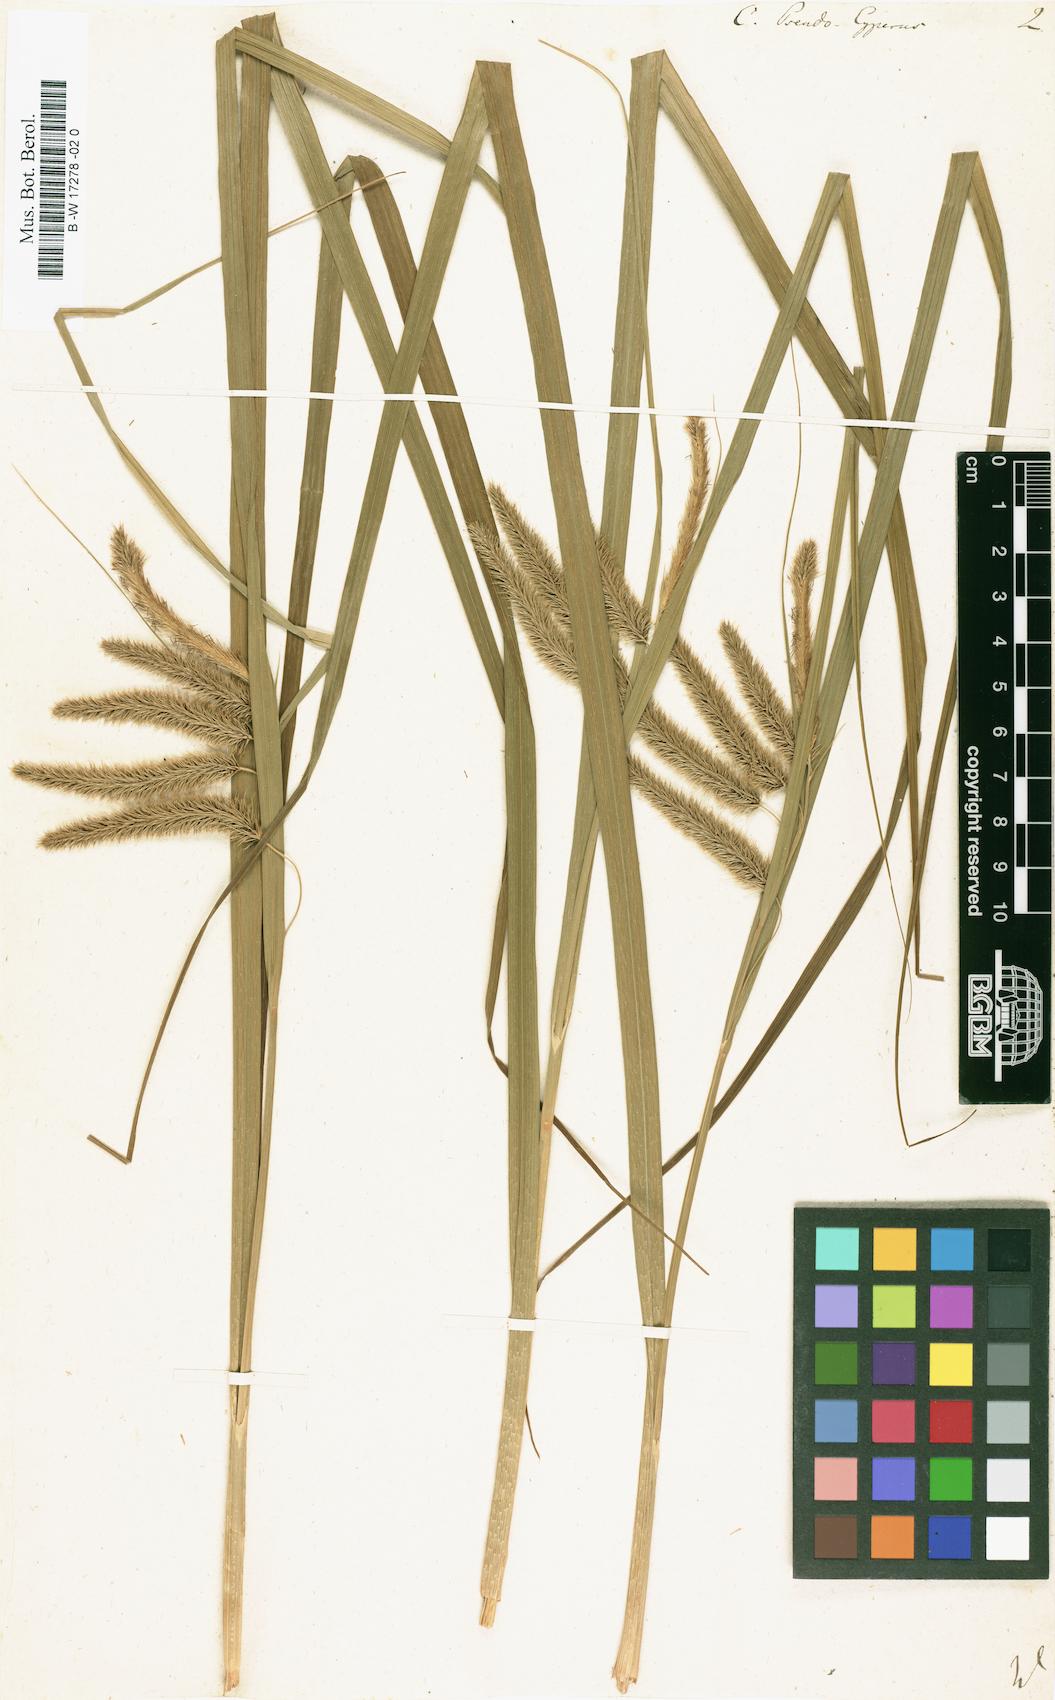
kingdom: Plantae
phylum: Tracheophyta
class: Liliopsida
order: Poales
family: Cyperaceae
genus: Carex
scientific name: Carex pseudocyperus
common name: Cyperus sedge
